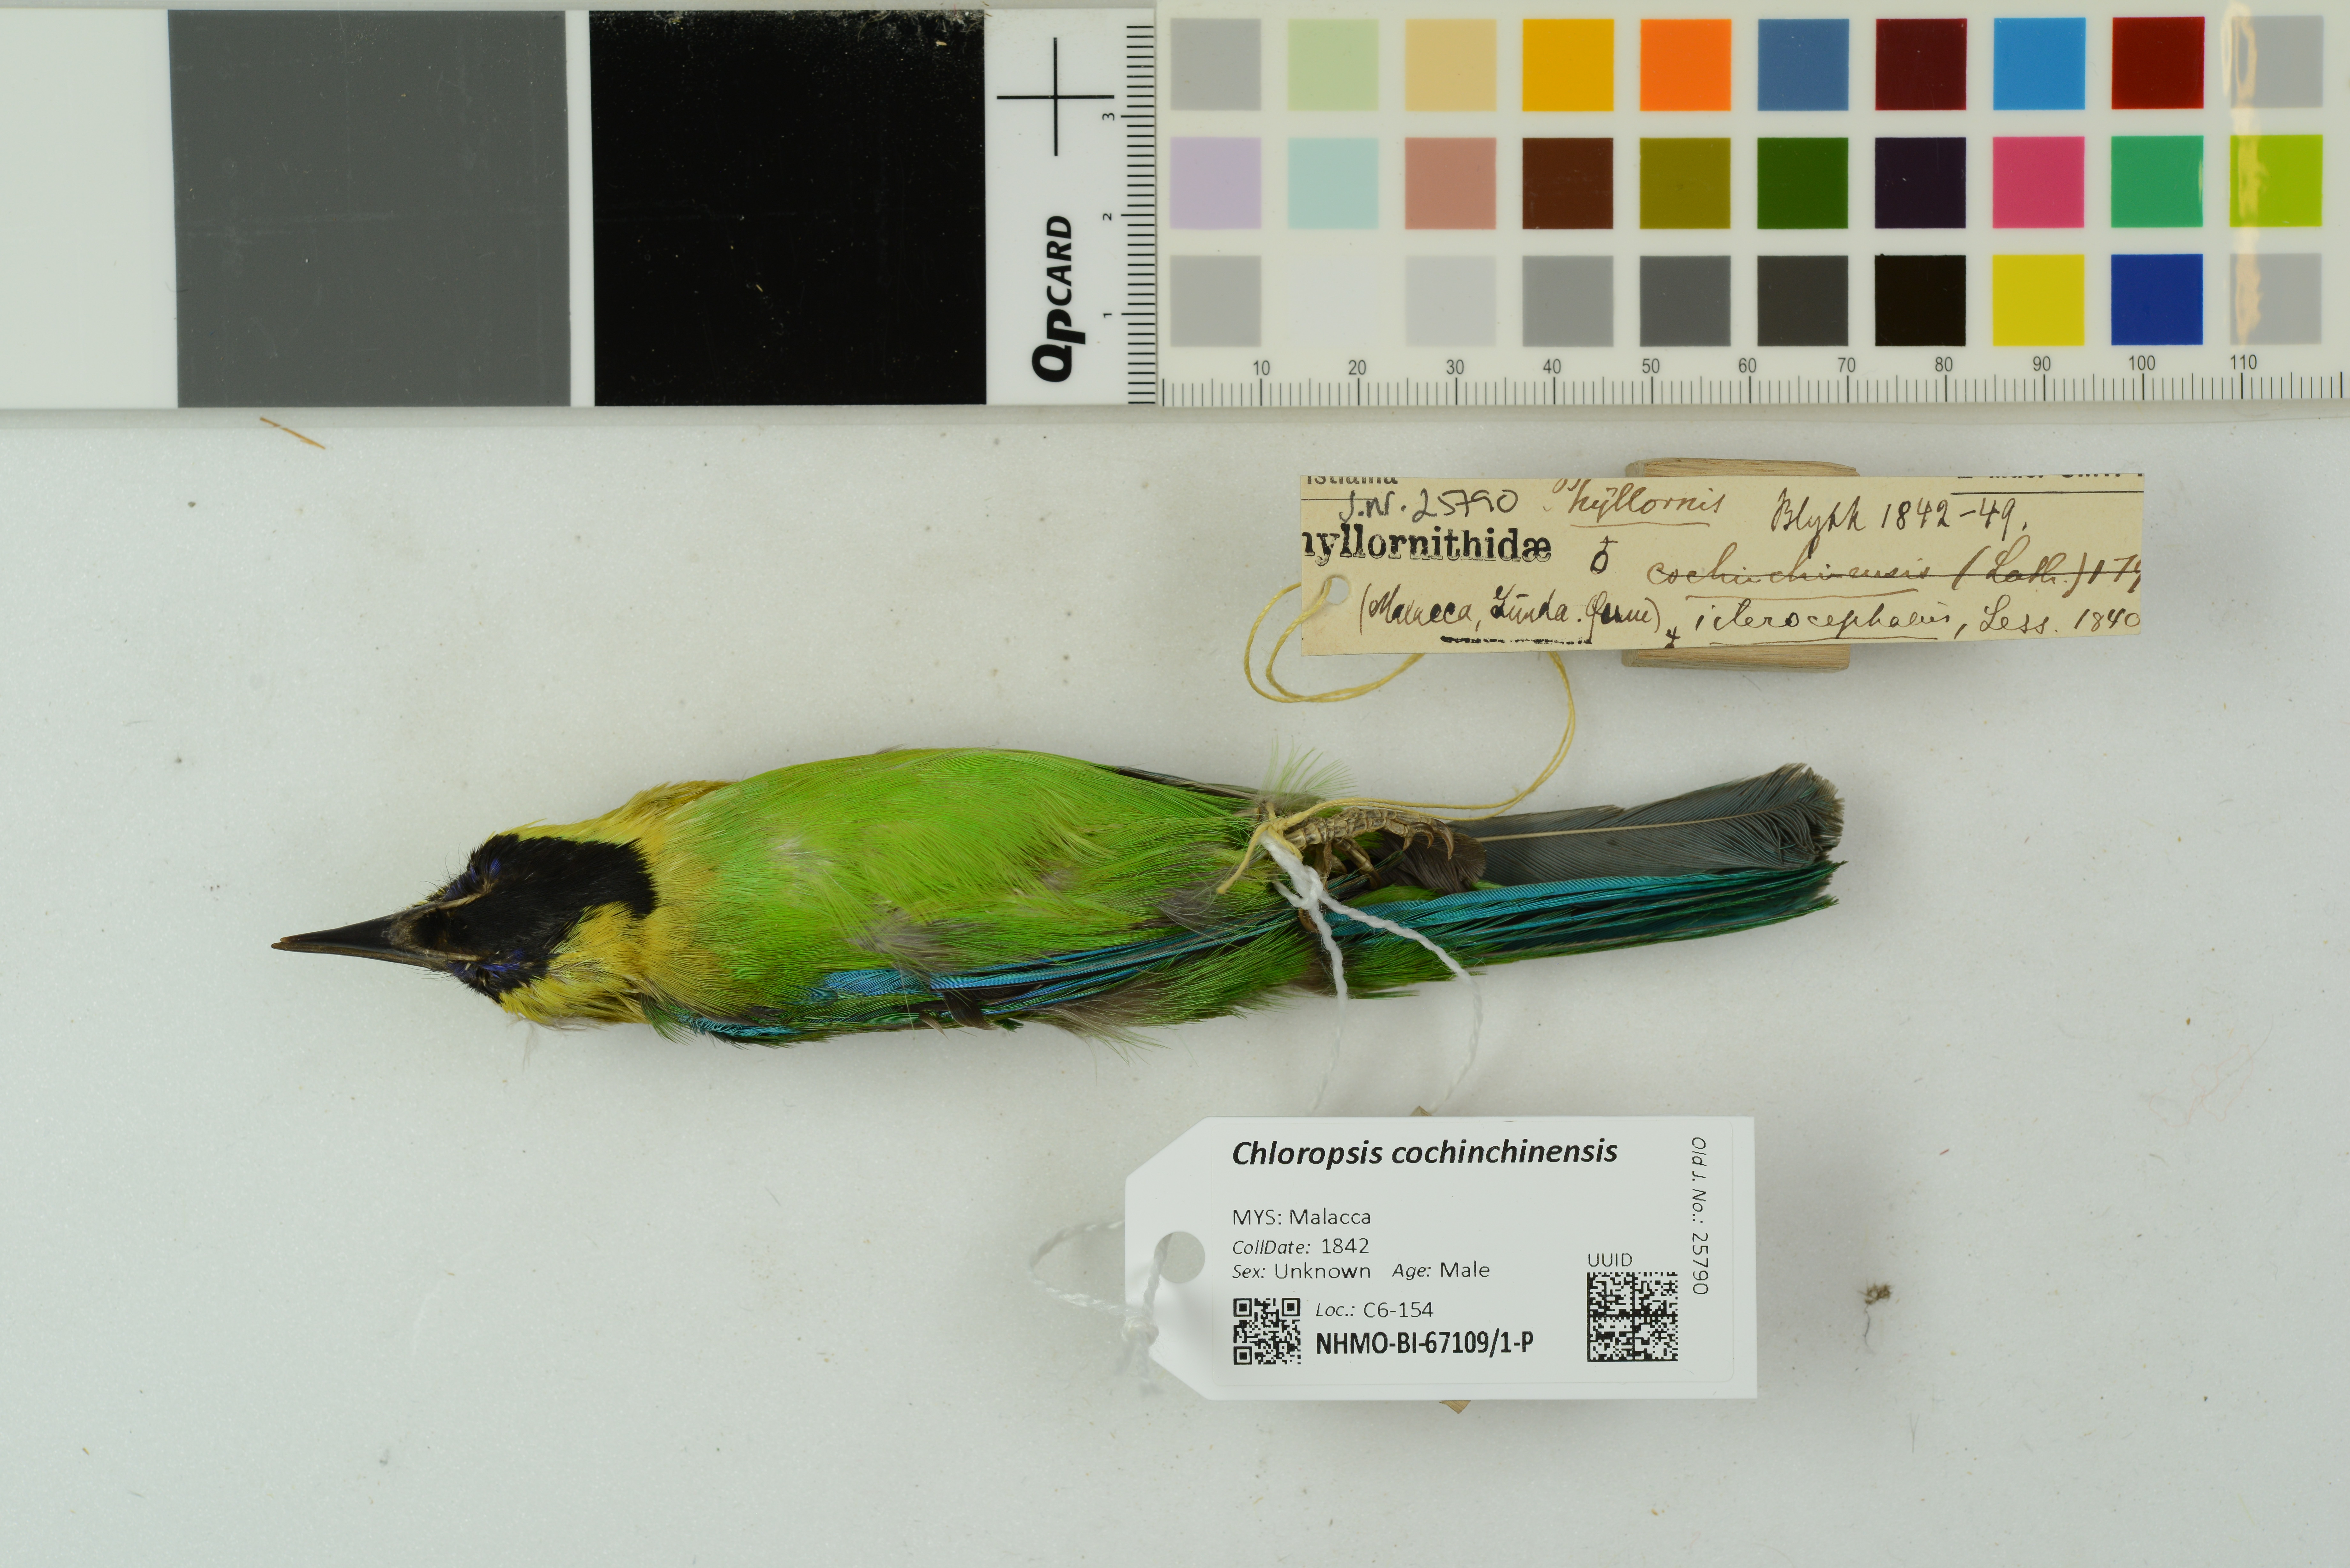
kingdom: Animalia
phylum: Chordata
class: Aves
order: Passeriformes
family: Chloropseidae
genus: Chloropsis
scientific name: Chloropsis cochinchinensis
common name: Blue-winged leafbird
